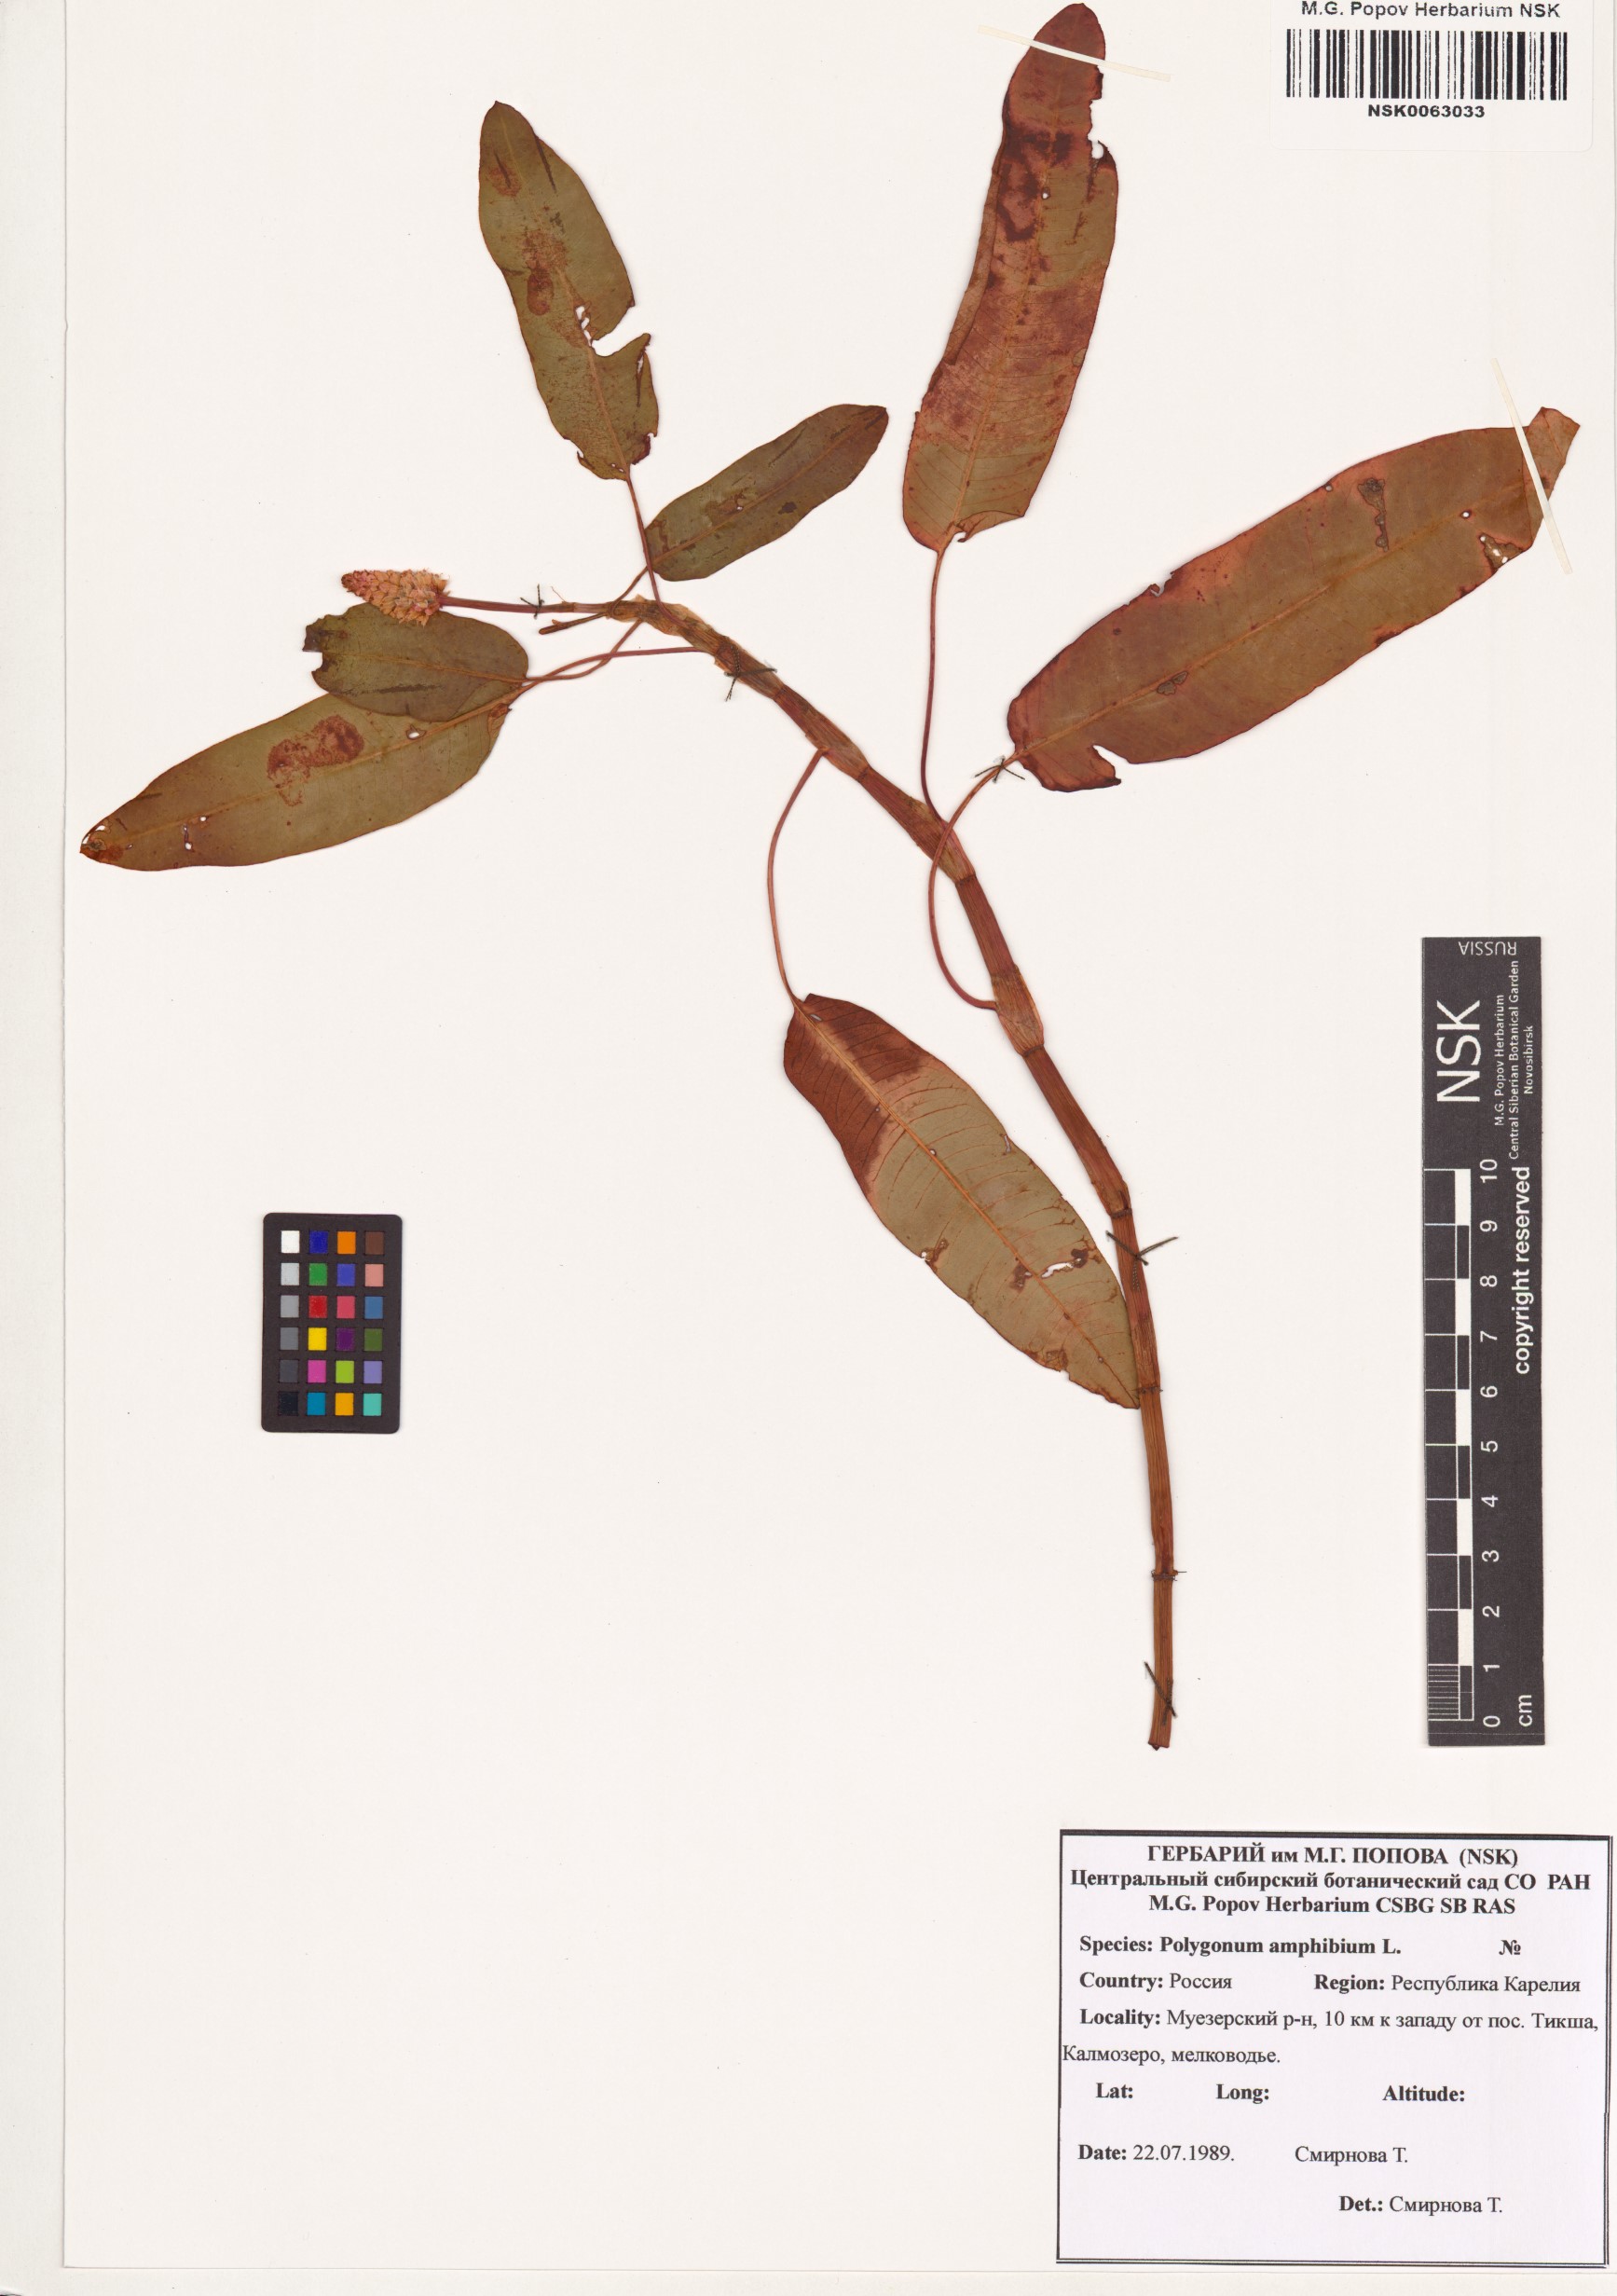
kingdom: Plantae
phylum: Tracheophyta
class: Magnoliopsida
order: Caryophyllales
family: Polygonaceae
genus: Persicaria
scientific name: Persicaria amphibia
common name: Amphibious bistort
